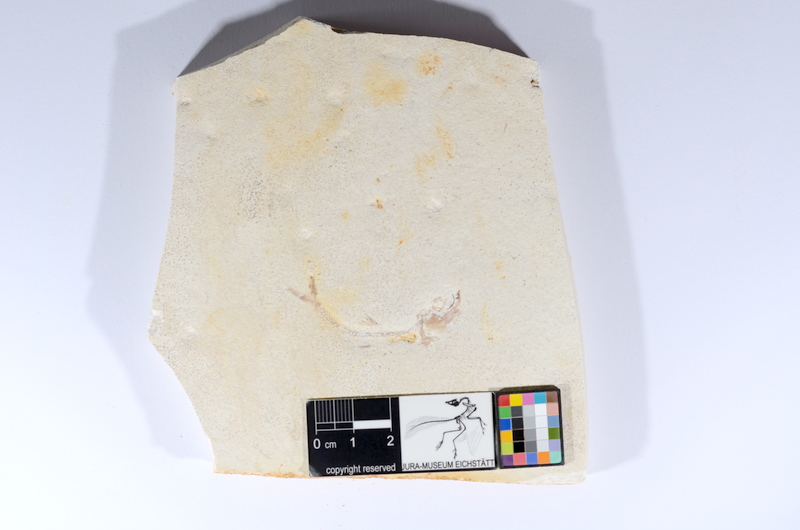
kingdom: Animalia
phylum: Chordata
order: Salmoniformes
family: Orthogonikleithridae
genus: Orthogonikleithrus
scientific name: Orthogonikleithrus hoelli
